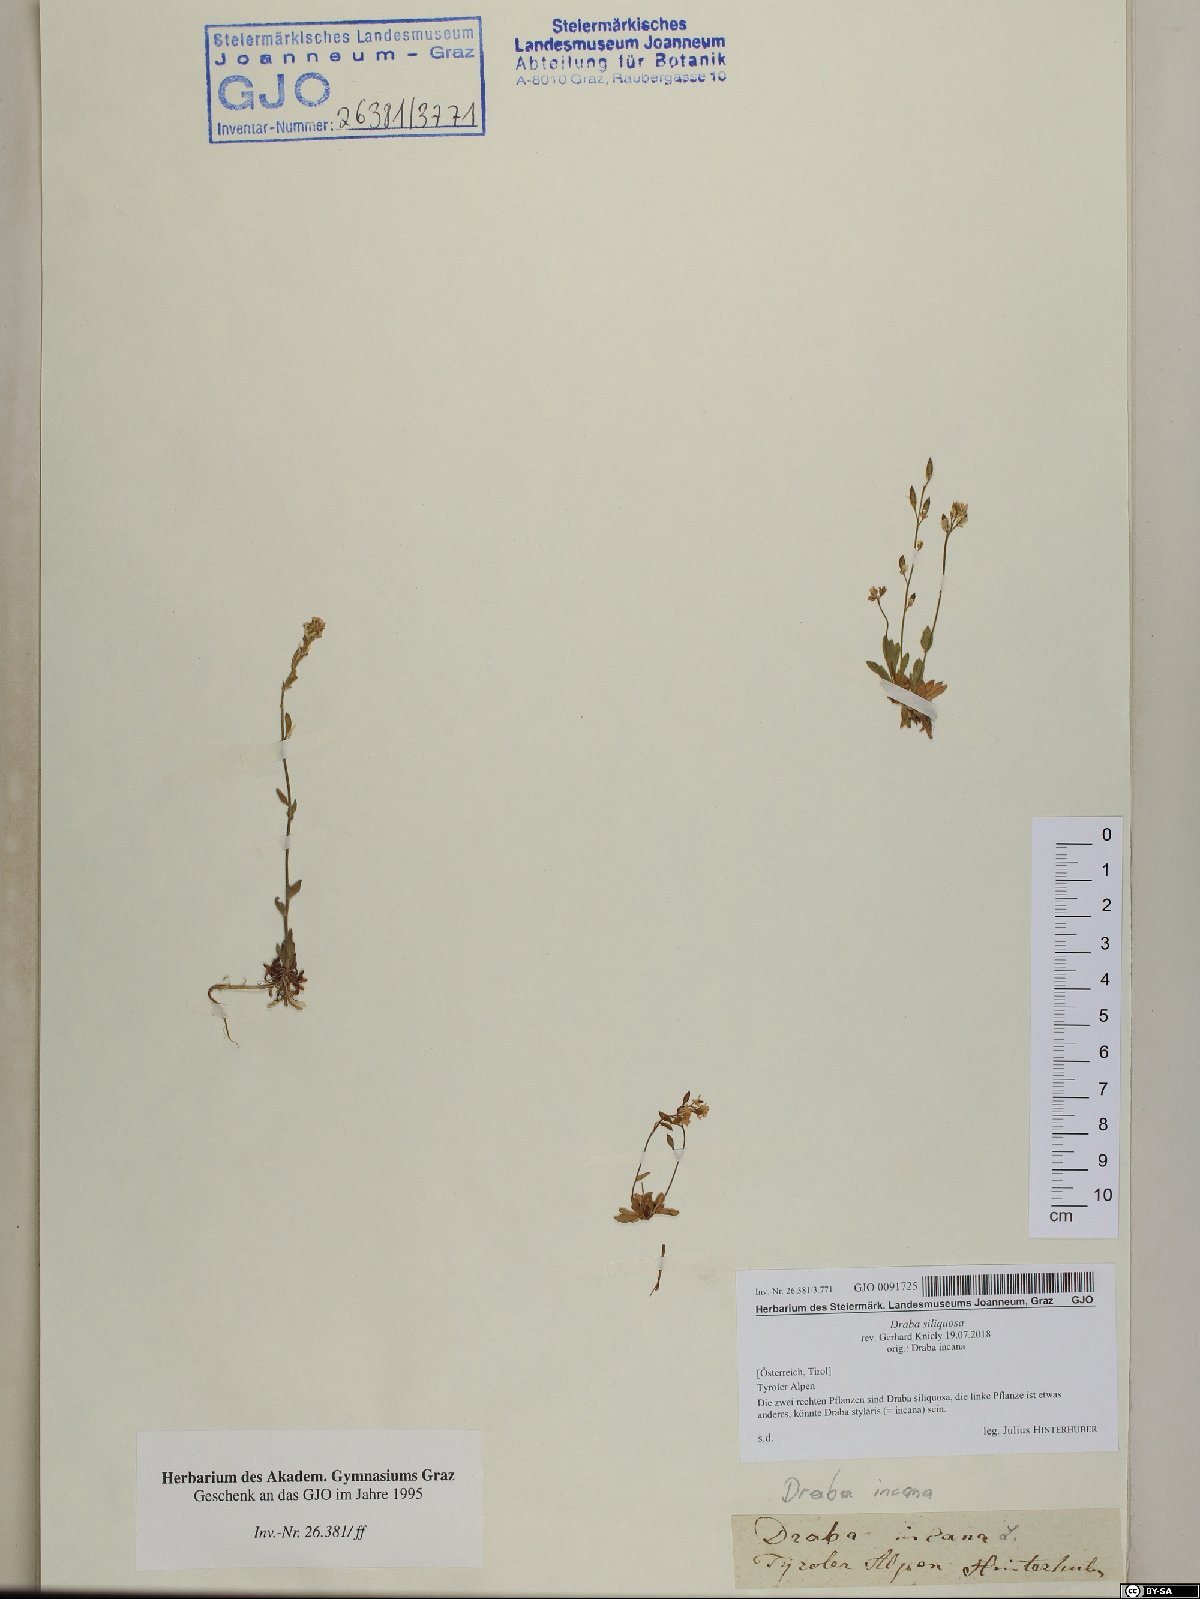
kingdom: Plantae
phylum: Tracheophyta
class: Magnoliopsida
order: Brassicales
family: Brassicaceae
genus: Draba
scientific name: Draba siliquosa
